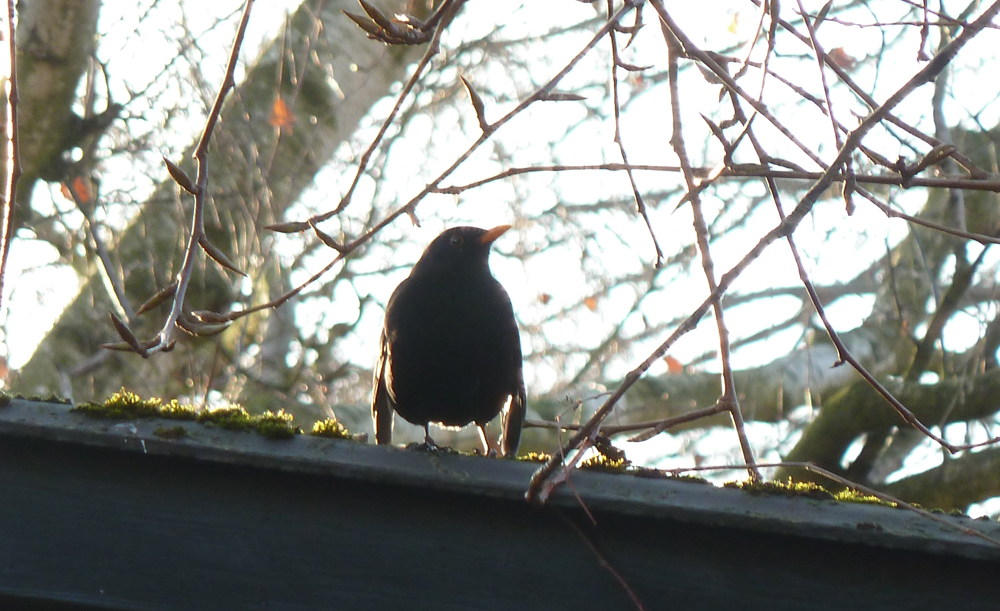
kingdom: Animalia
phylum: Chordata
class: Aves
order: Passeriformes
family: Turdidae
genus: Turdus
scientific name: Turdus merula
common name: Common blackbird
